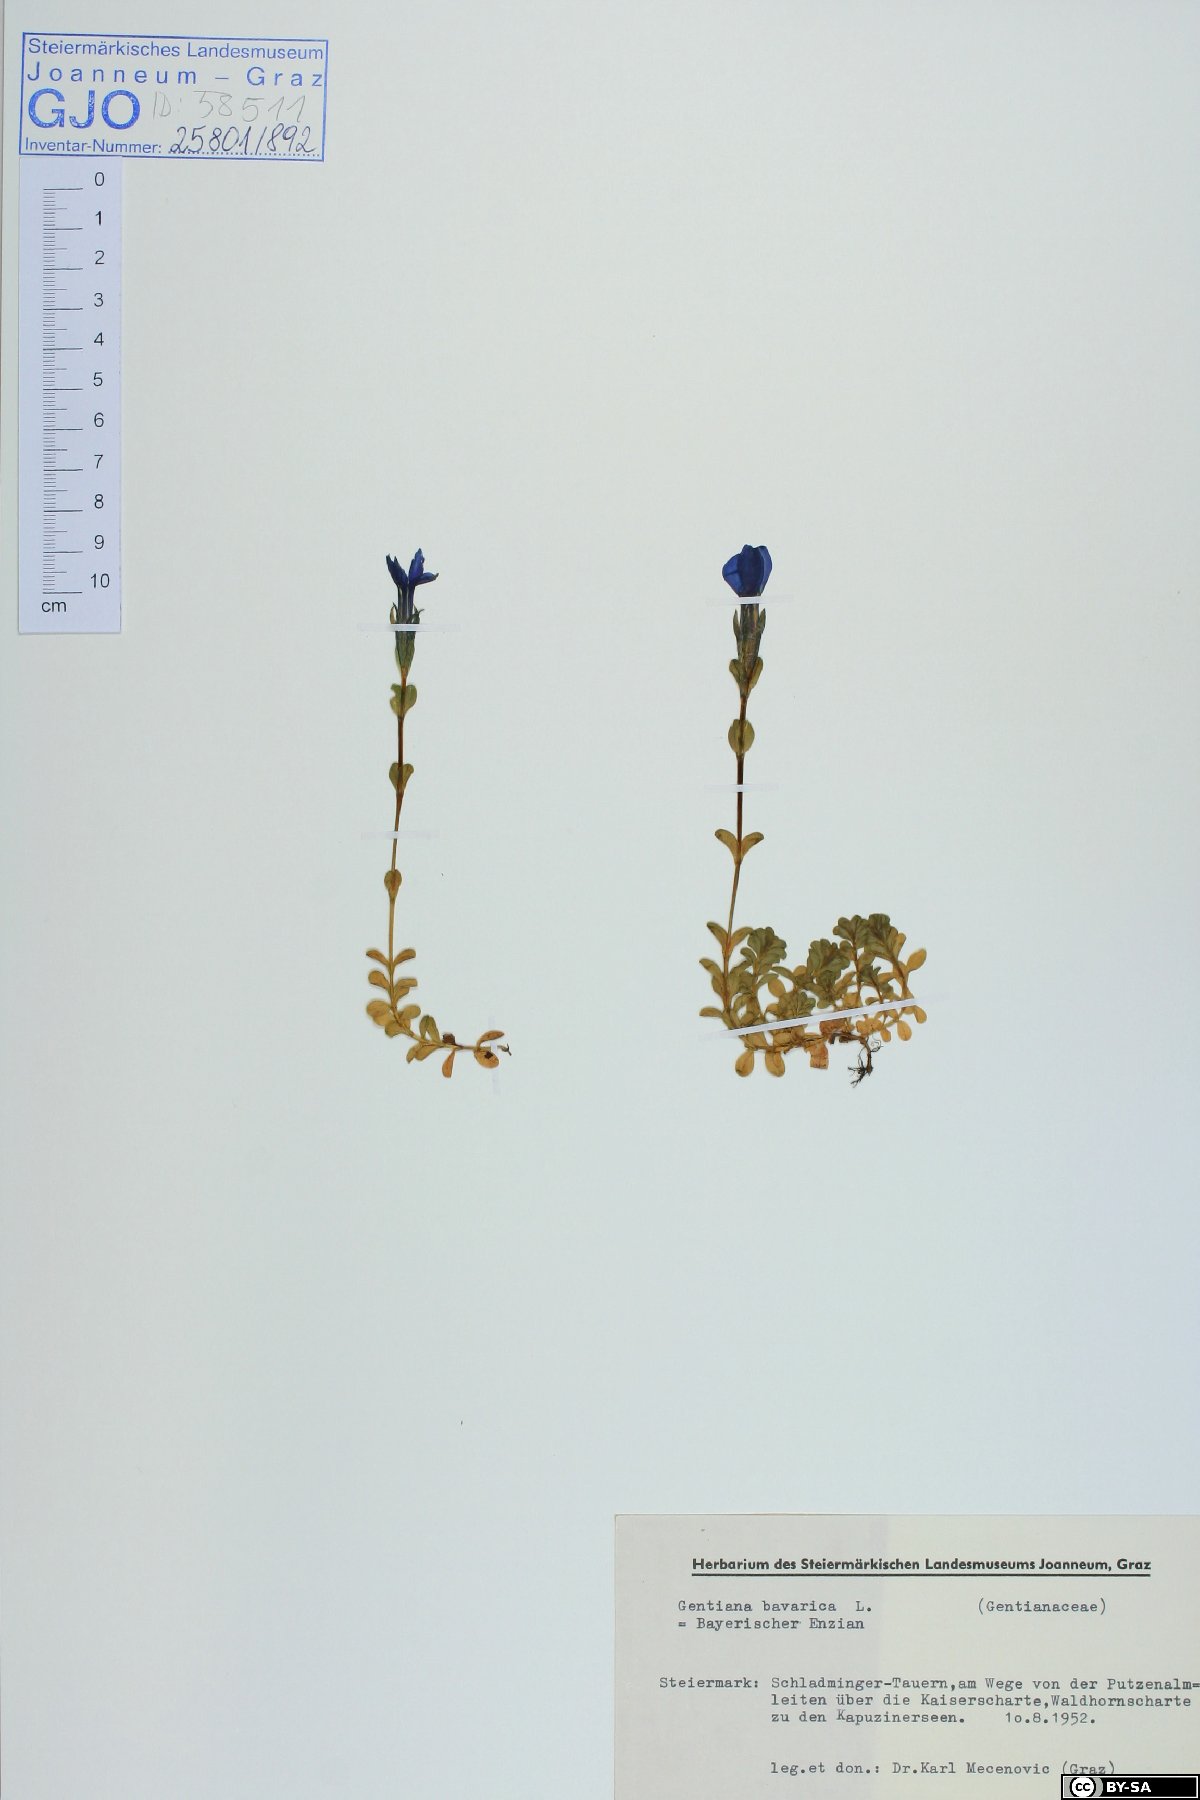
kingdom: Plantae
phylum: Tracheophyta
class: Magnoliopsida
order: Gentianales
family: Gentianaceae
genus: Gentiana
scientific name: Gentiana bavarica
